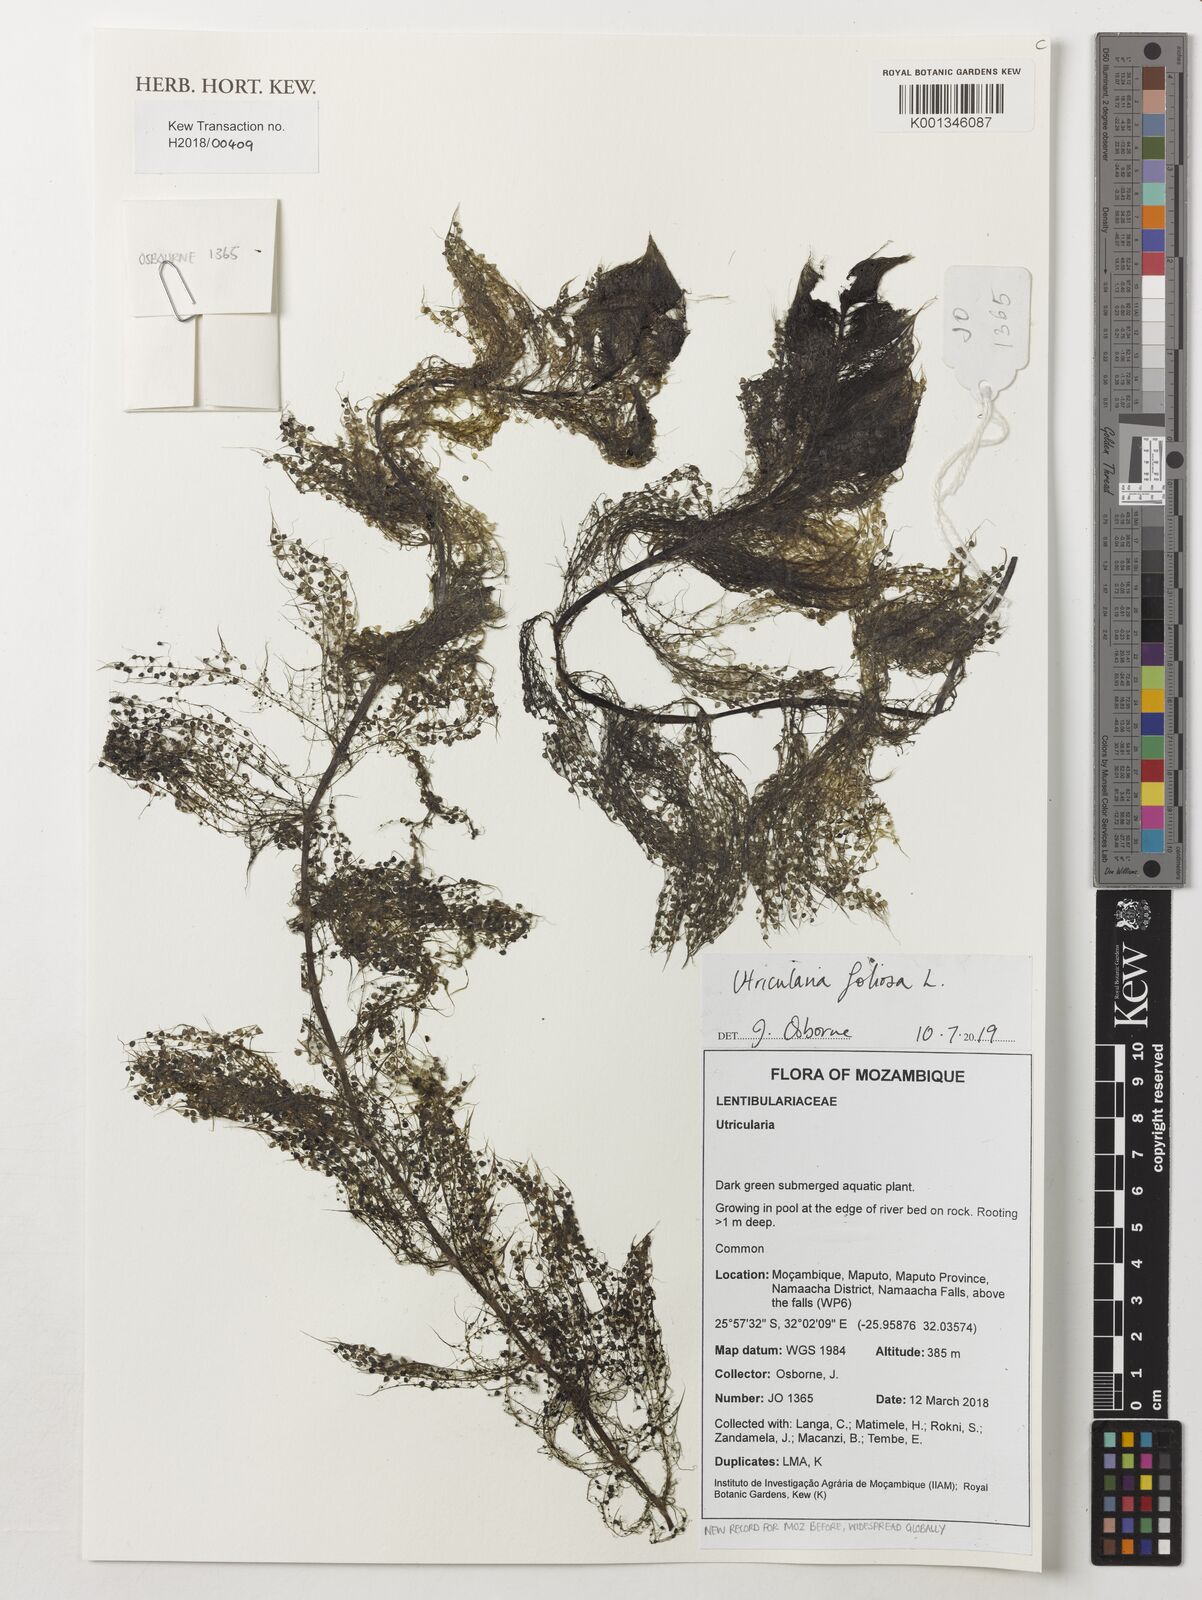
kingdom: Plantae
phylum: Tracheophyta
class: Magnoliopsida
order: Lamiales
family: Lentibulariaceae
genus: Utricularia
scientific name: Utricularia
